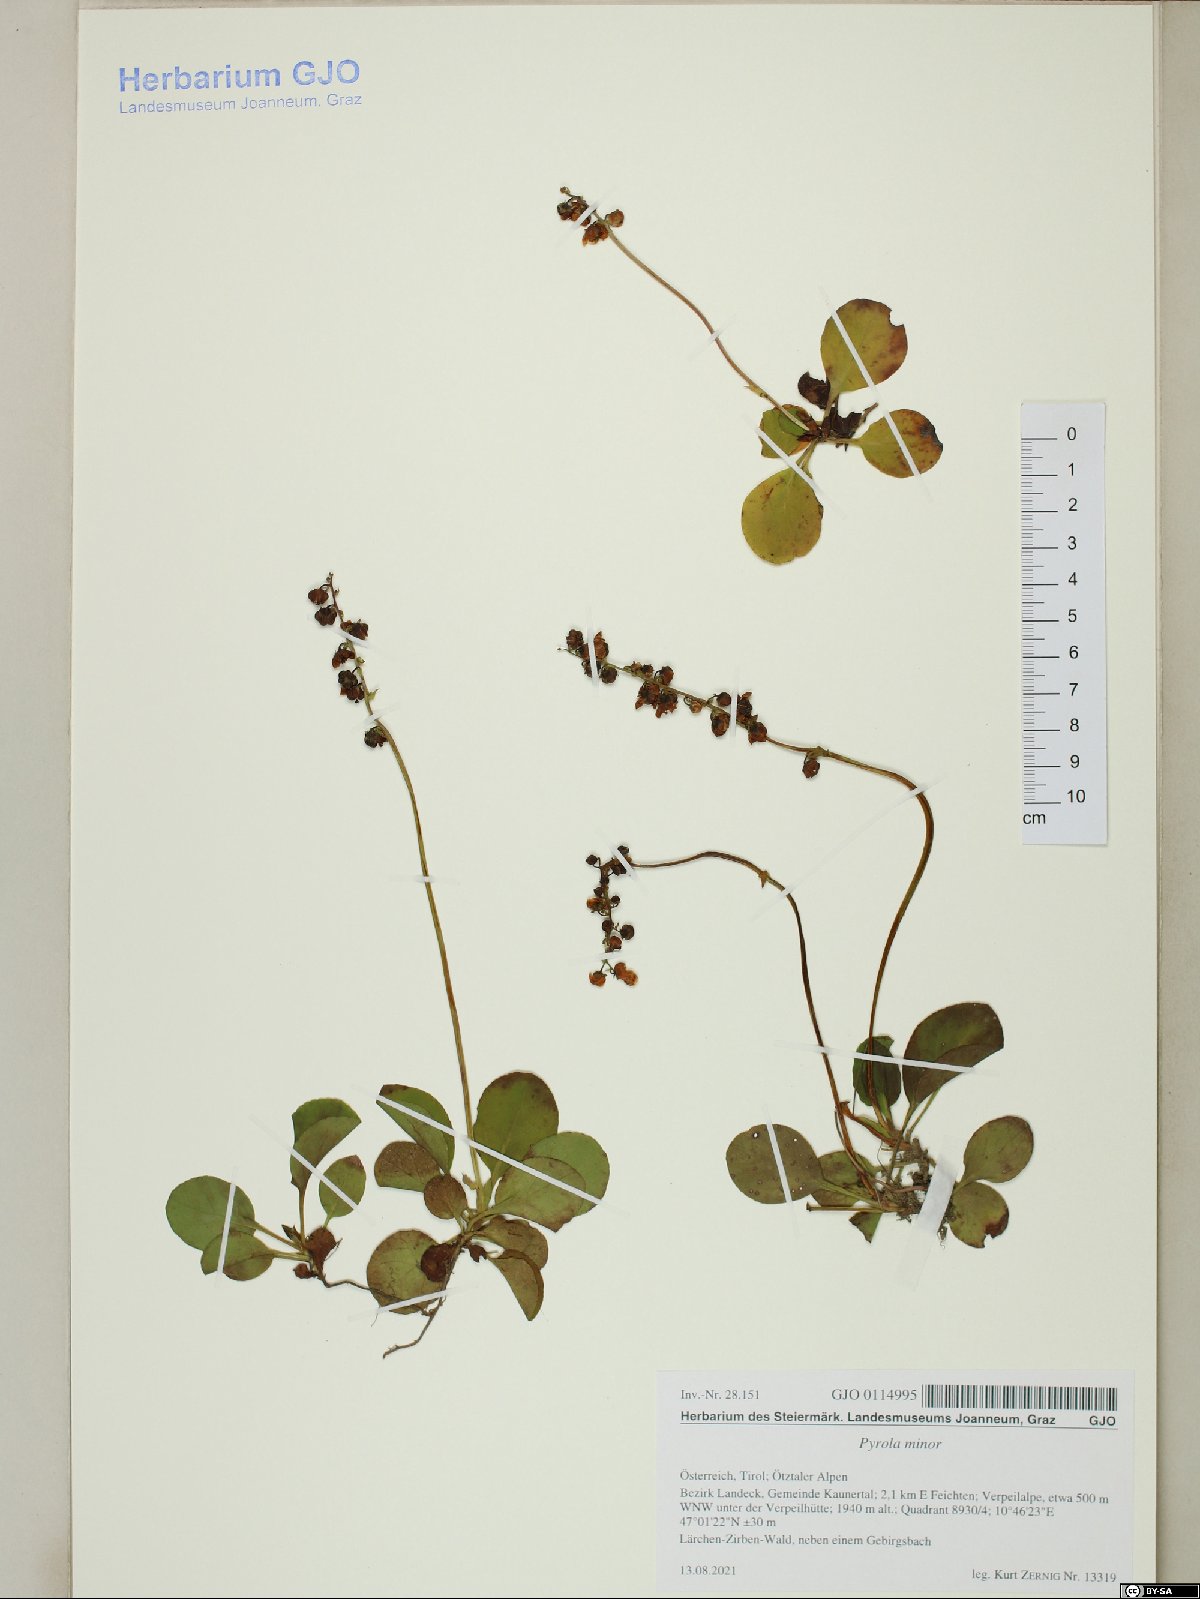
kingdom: Plantae
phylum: Tracheophyta
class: Magnoliopsida
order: Ericales
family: Ericaceae
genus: Pyrola
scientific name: Pyrola minor
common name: Common wintergreen
